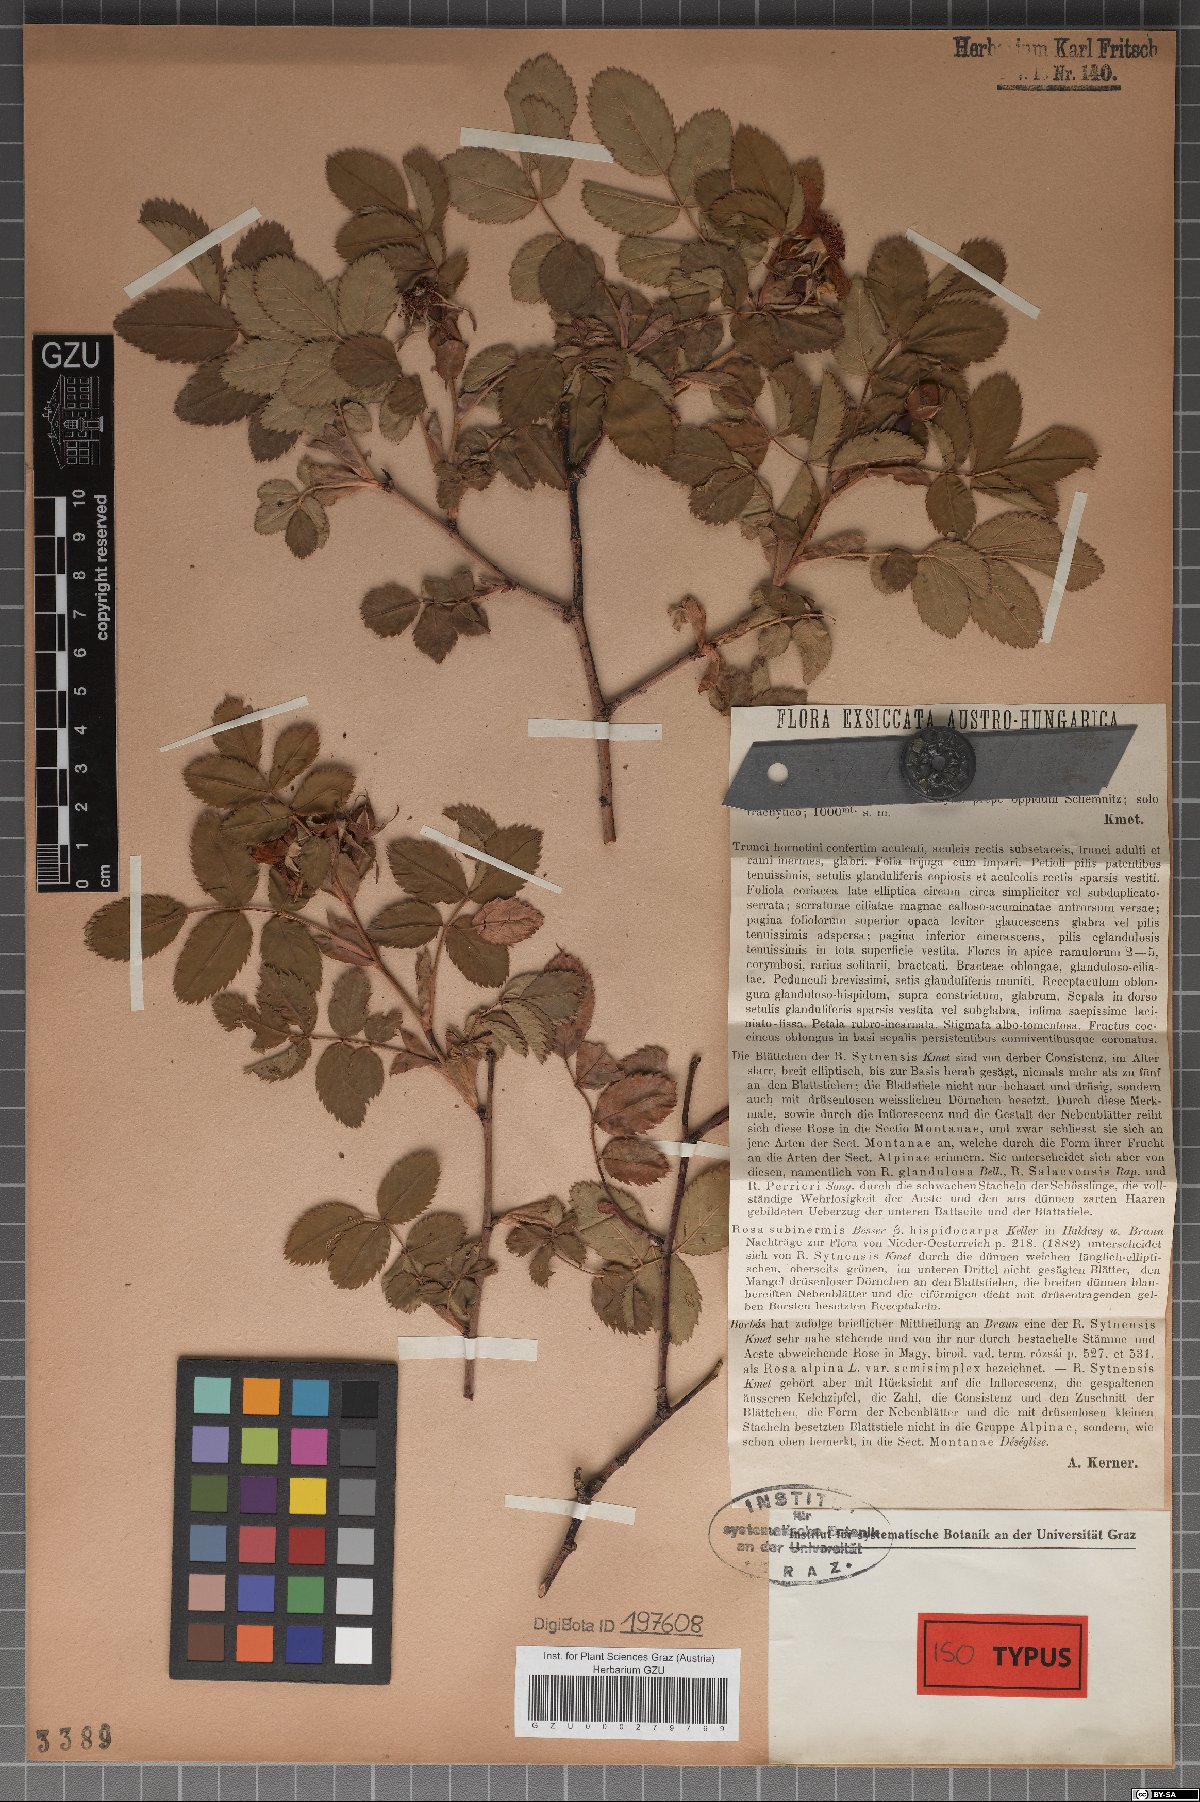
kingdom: Plantae
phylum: Tracheophyta
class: Magnoliopsida
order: Rosales
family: Rosaceae
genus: Rosa
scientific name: Rosa sytnensis
